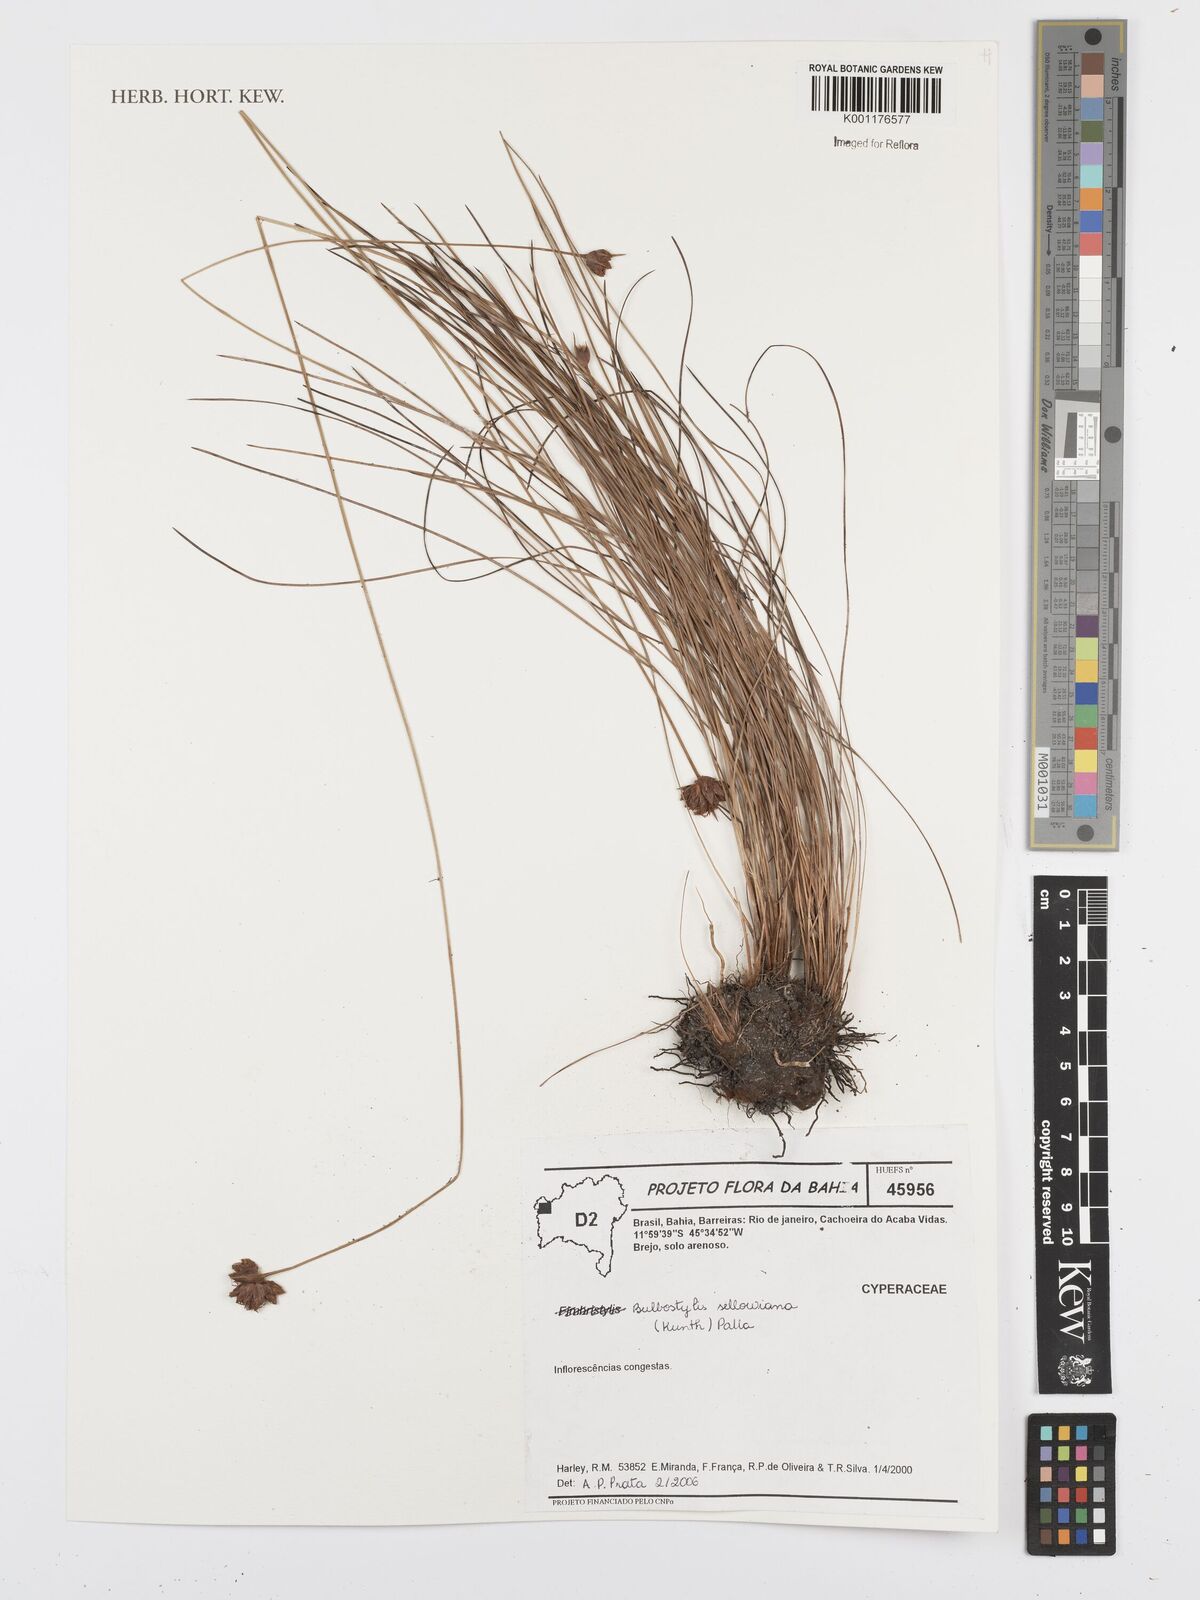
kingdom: Plantae
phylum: Tracheophyta
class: Liliopsida
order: Poales
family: Cyperaceae
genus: Bulbostylis
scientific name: Bulbostylis sellowiana
